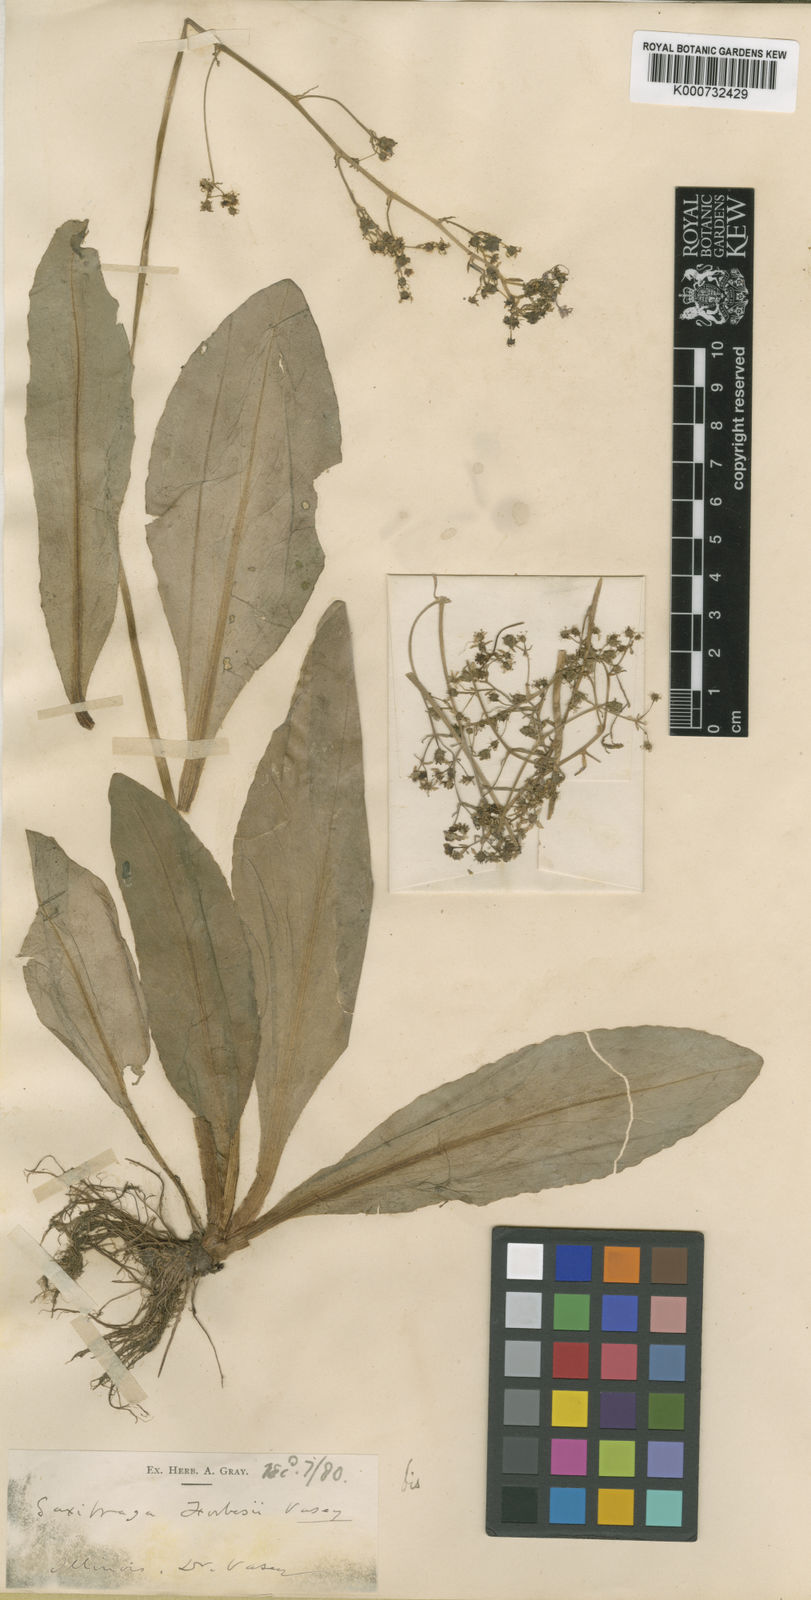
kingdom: Plantae
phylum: Tracheophyta
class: Magnoliopsida
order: Saxifragales
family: Saxifragaceae
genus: Micranthes
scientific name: Micranthes pensylvanica
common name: Marsh saxifrage
